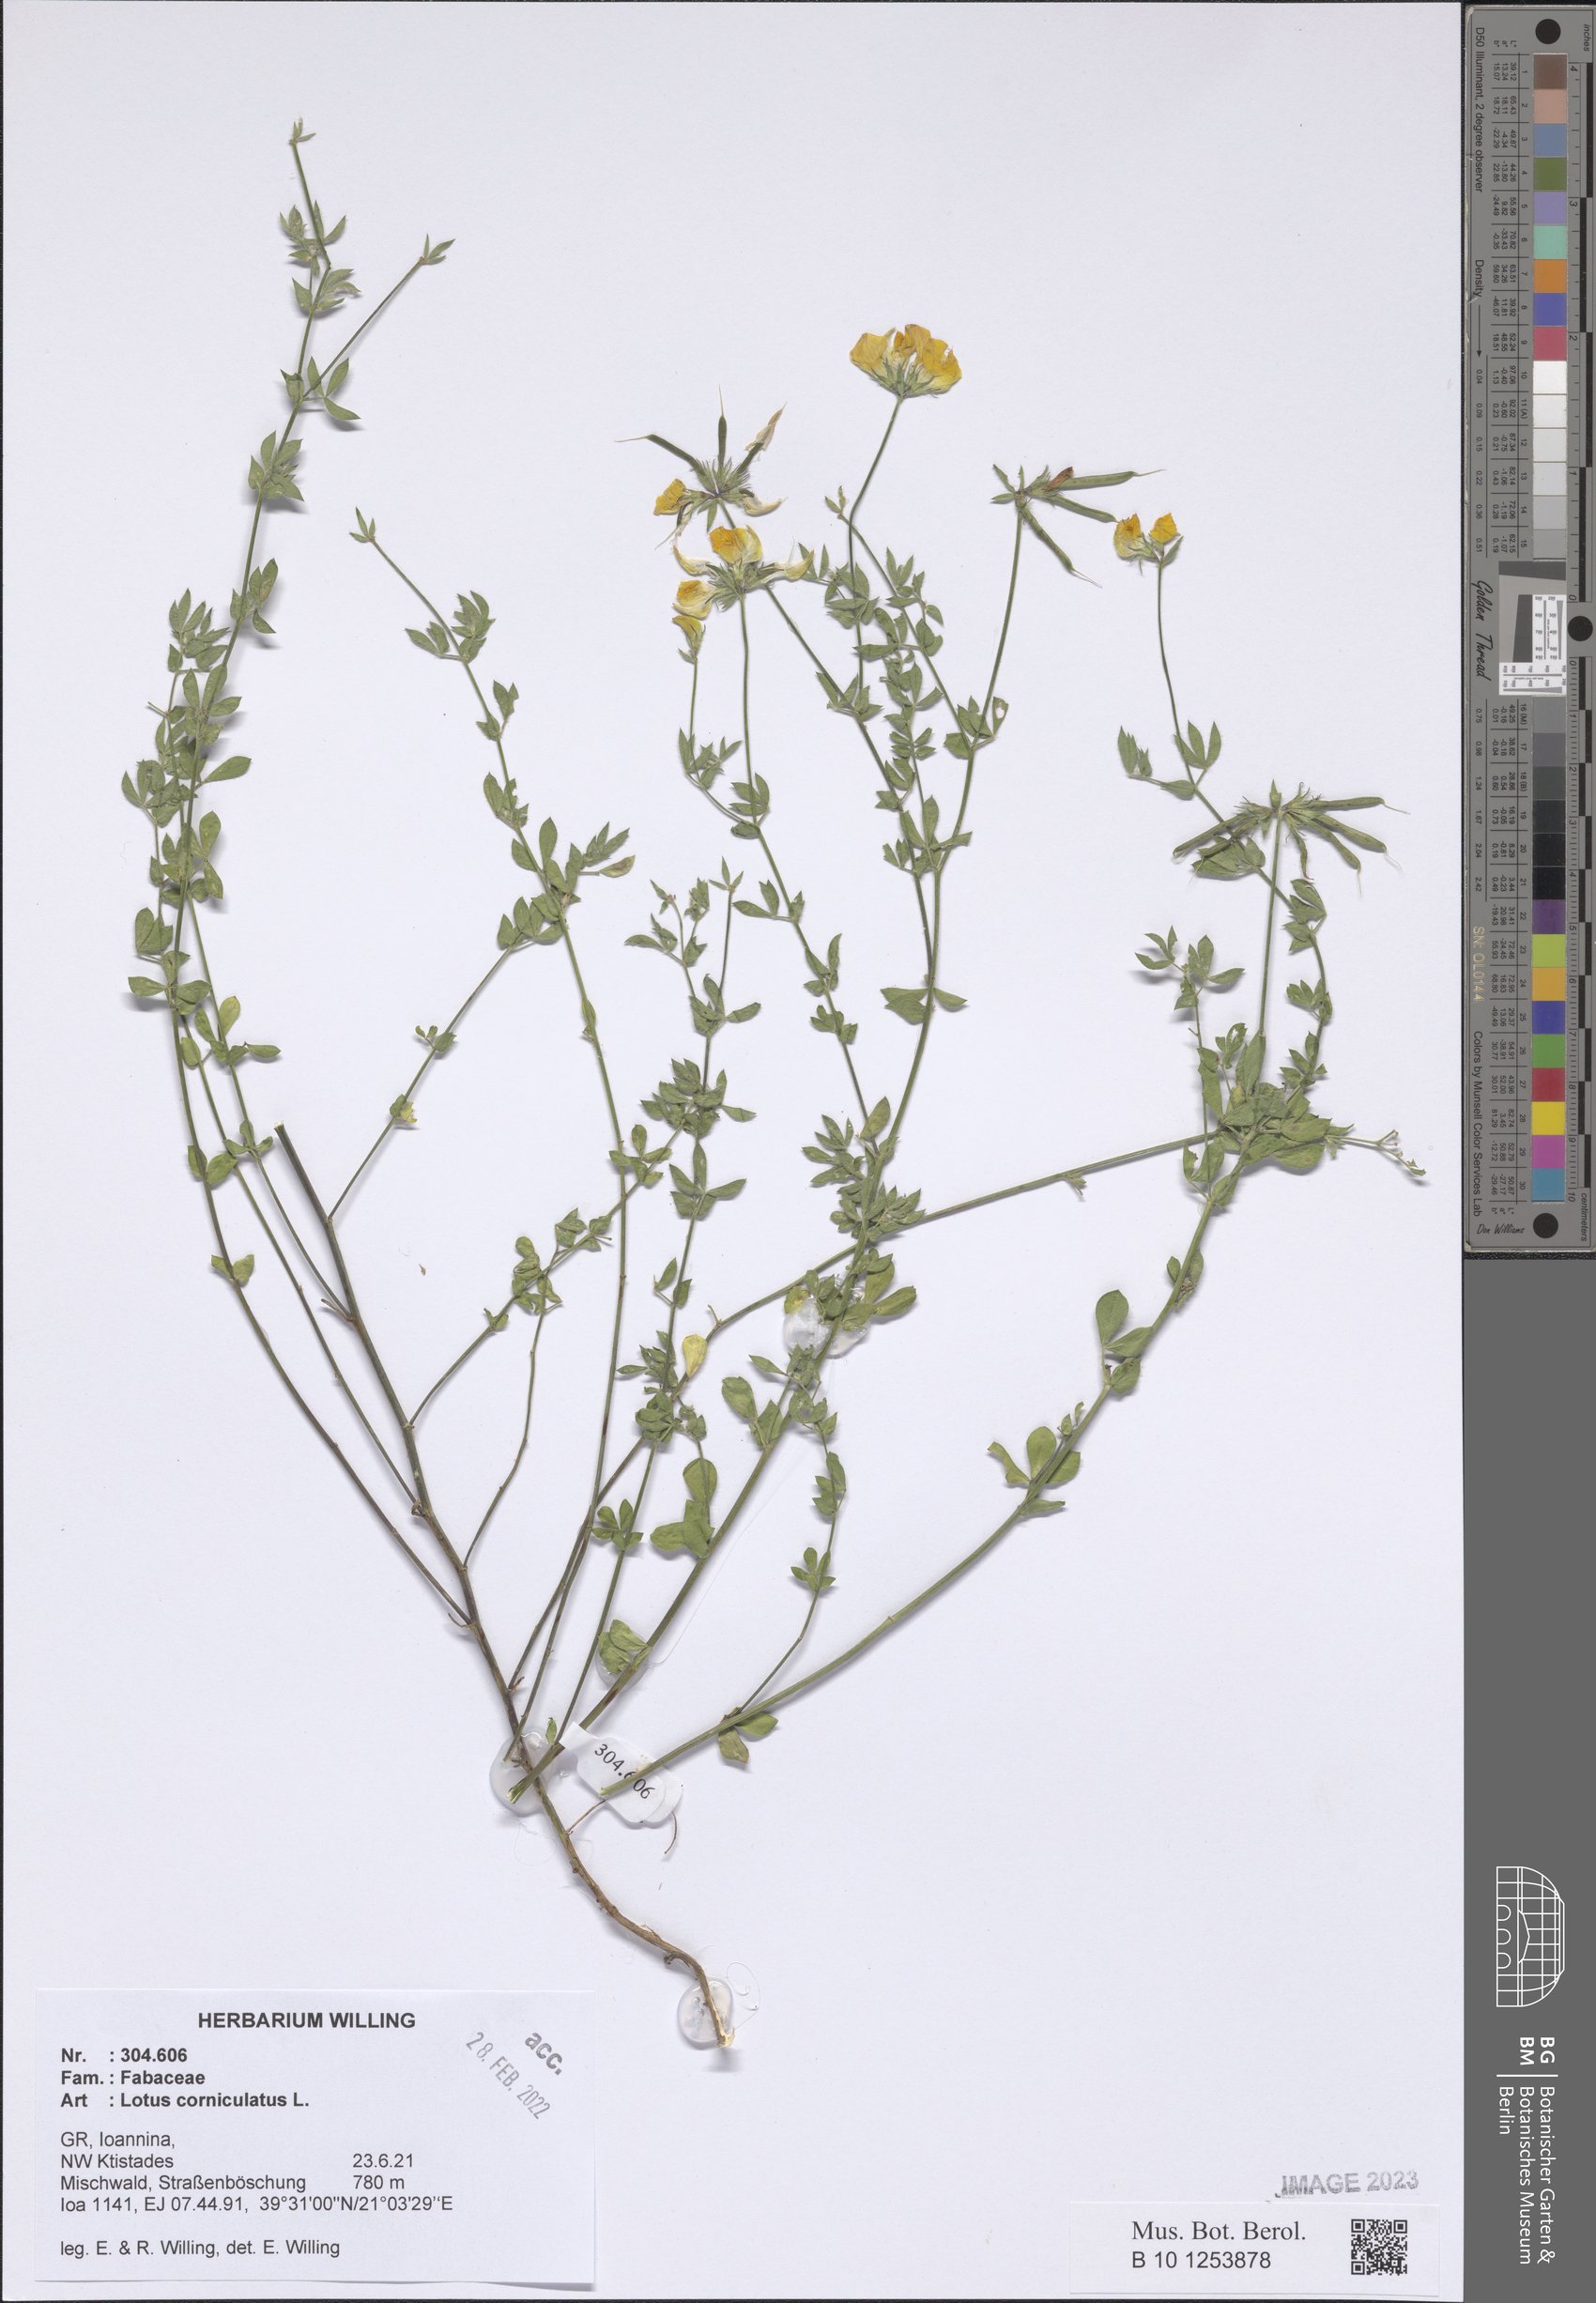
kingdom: Plantae
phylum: Tracheophyta
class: Magnoliopsida
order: Fabales
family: Fabaceae
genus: Lotus
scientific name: Lotus corniculatus
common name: Common bird's-foot-trefoil
